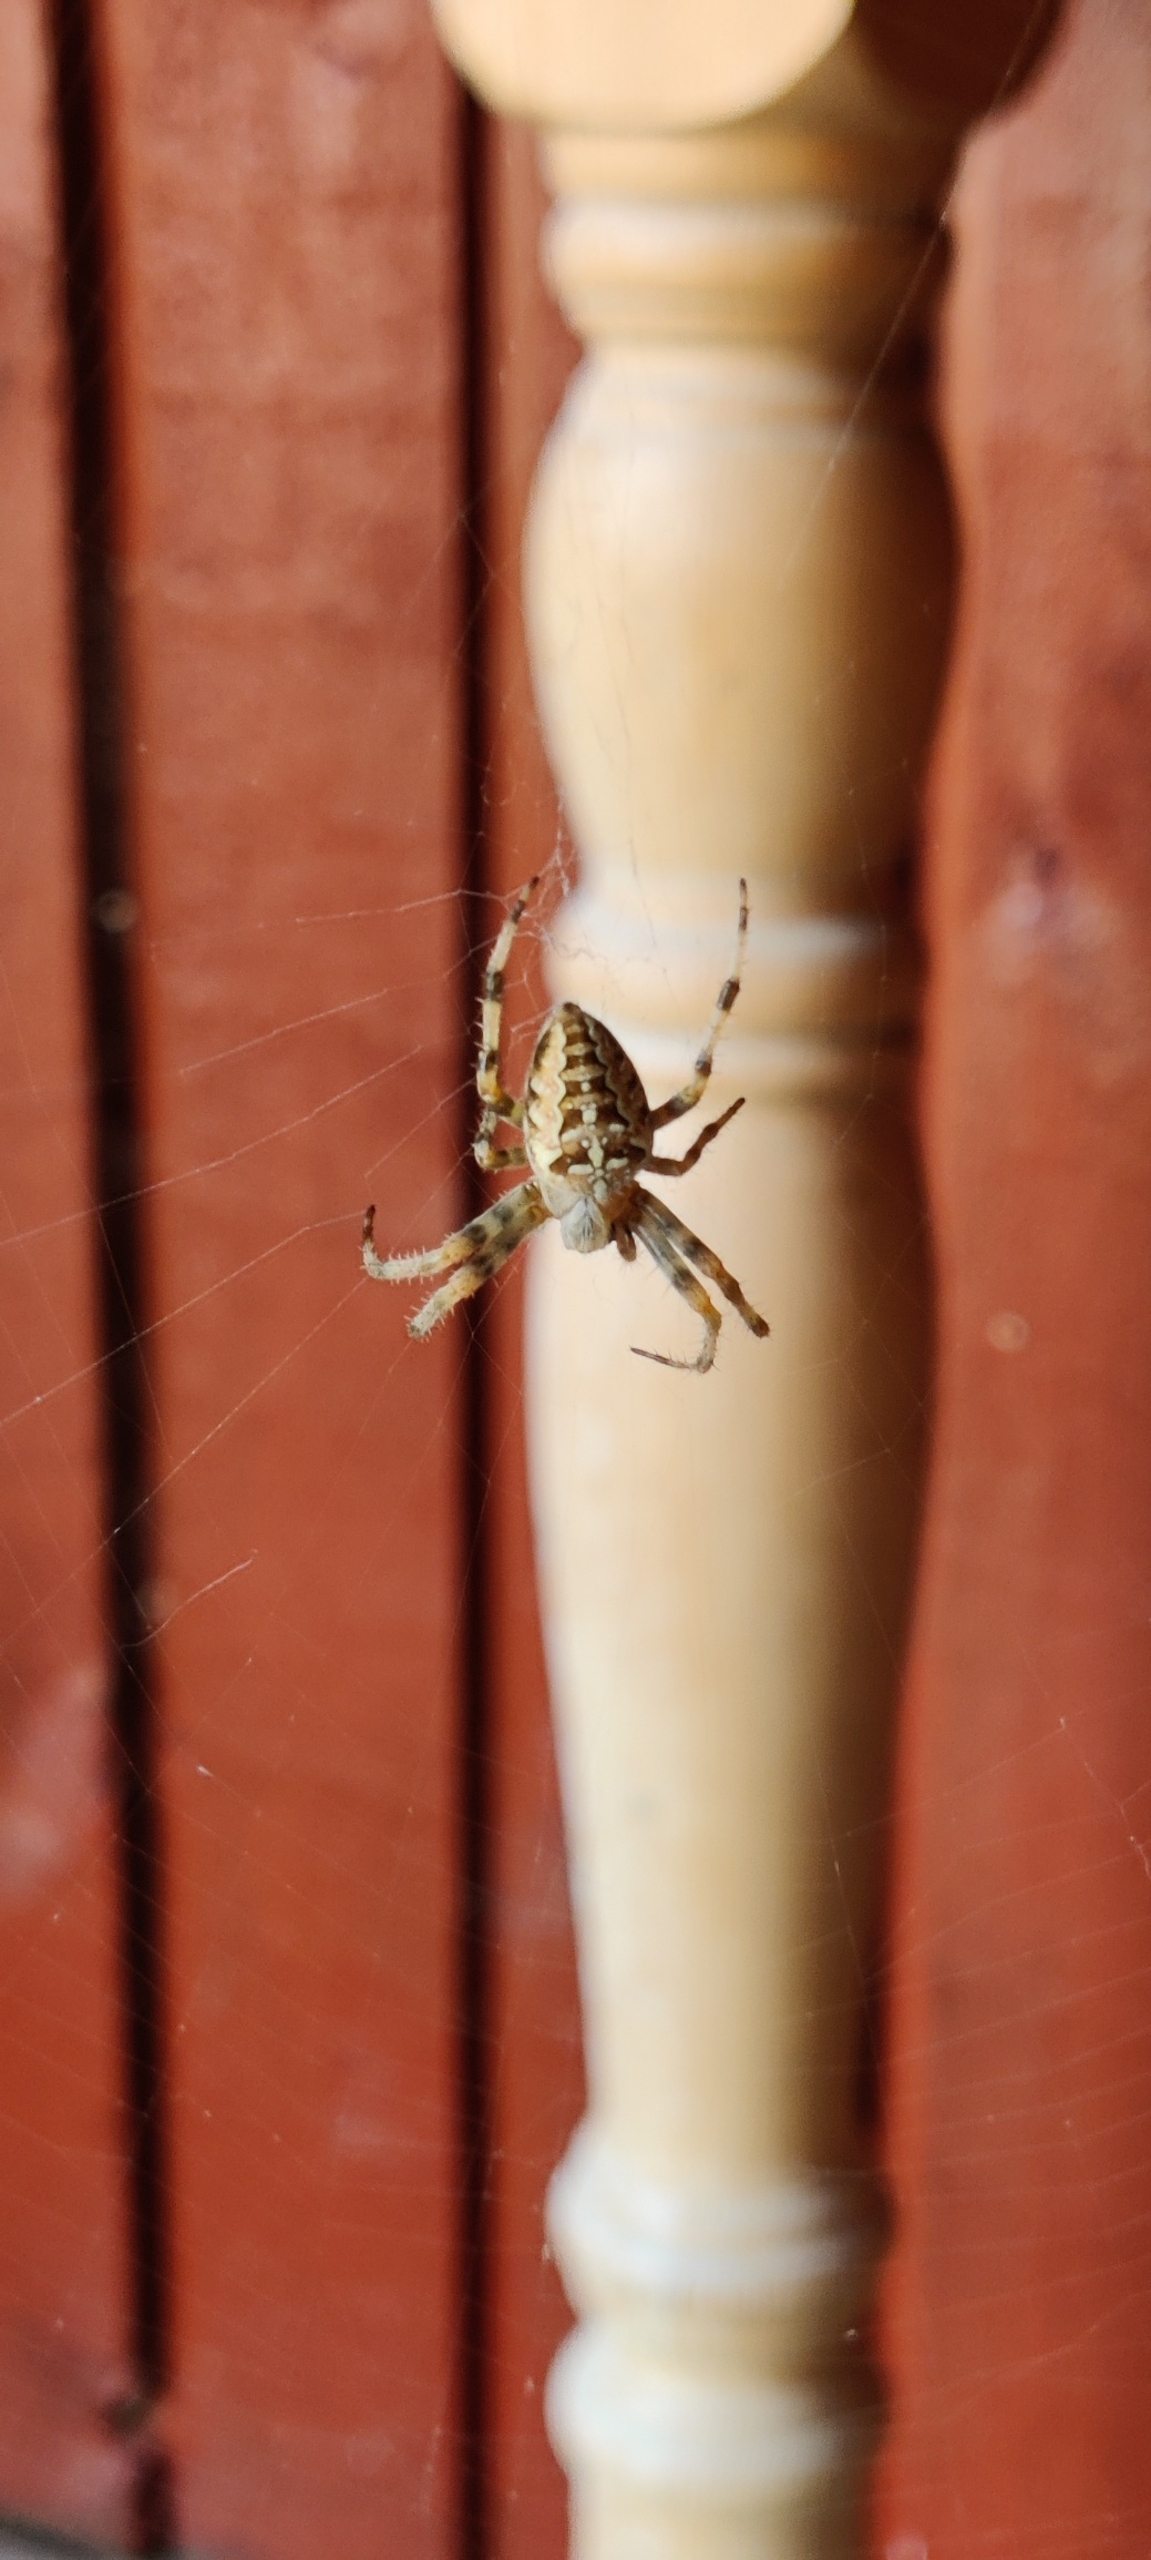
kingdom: Animalia
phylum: Arthropoda
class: Arachnida
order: Araneae
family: Araneidae
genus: Araneus
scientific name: Araneus diadematus
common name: Korsedderkop
